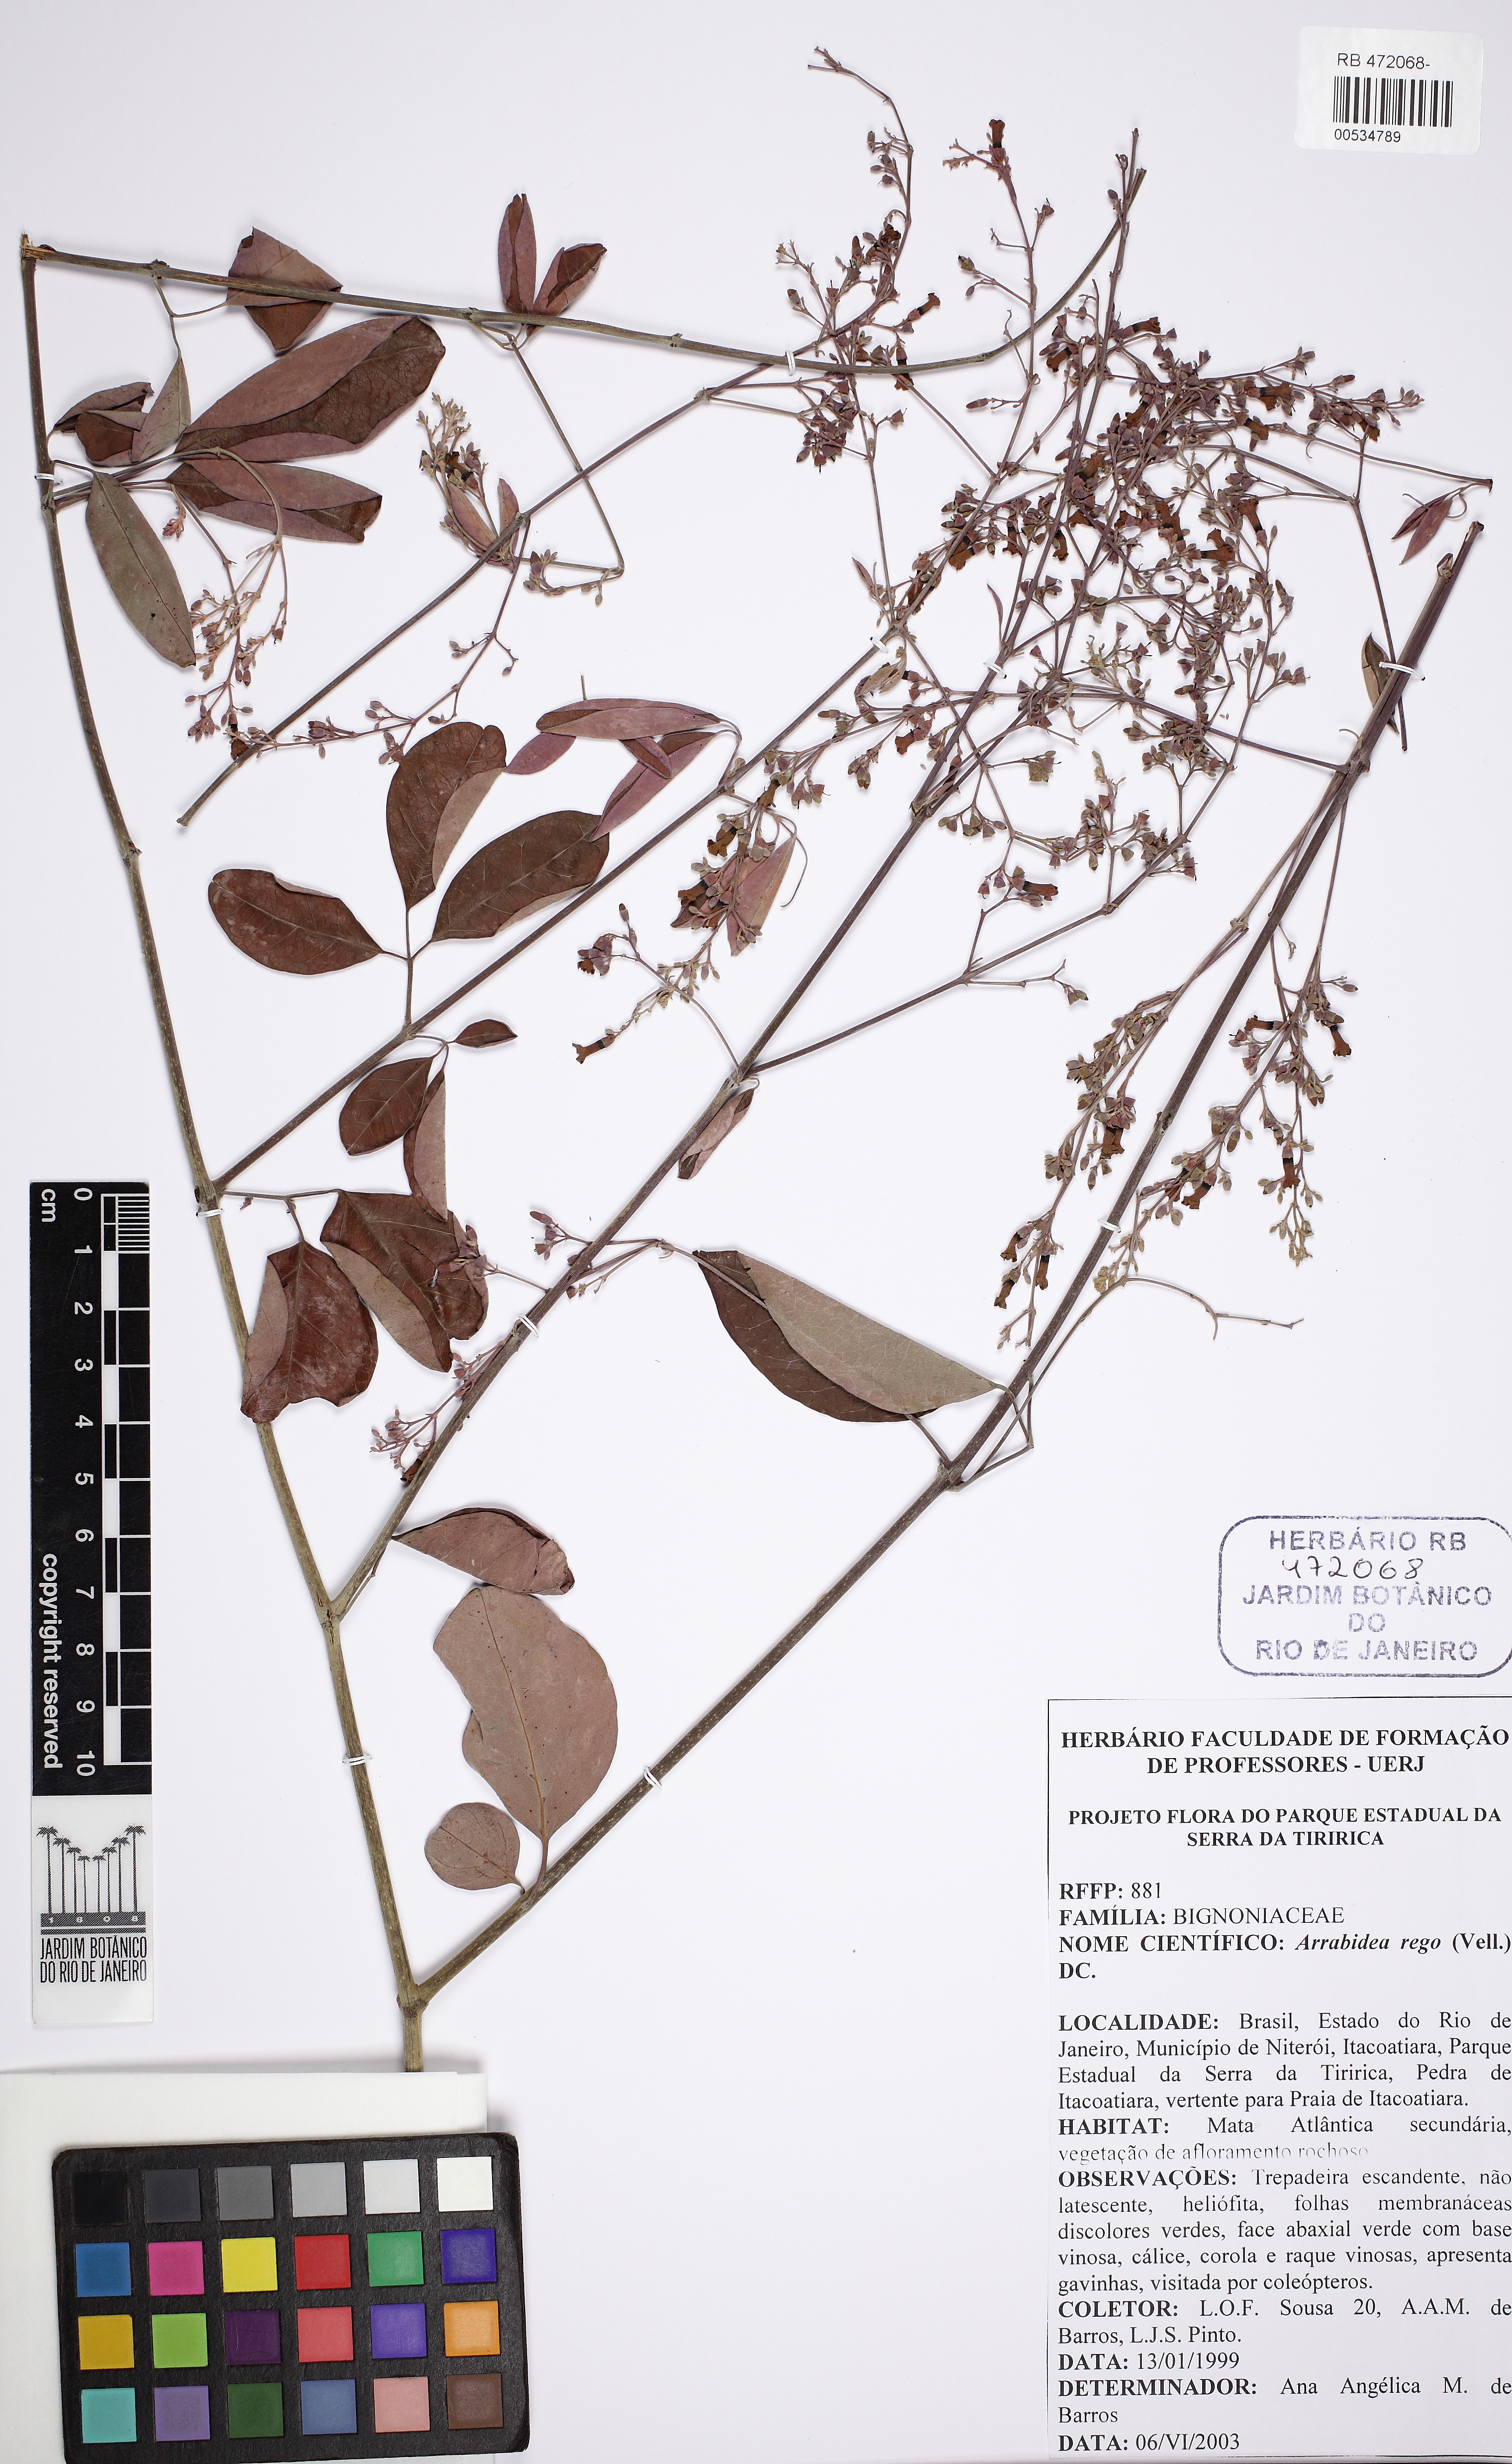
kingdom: Plantae
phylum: Tracheophyta
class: Magnoliopsida
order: Lamiales
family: Bignoniaceae
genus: Fridericia
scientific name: Fridericia rego
